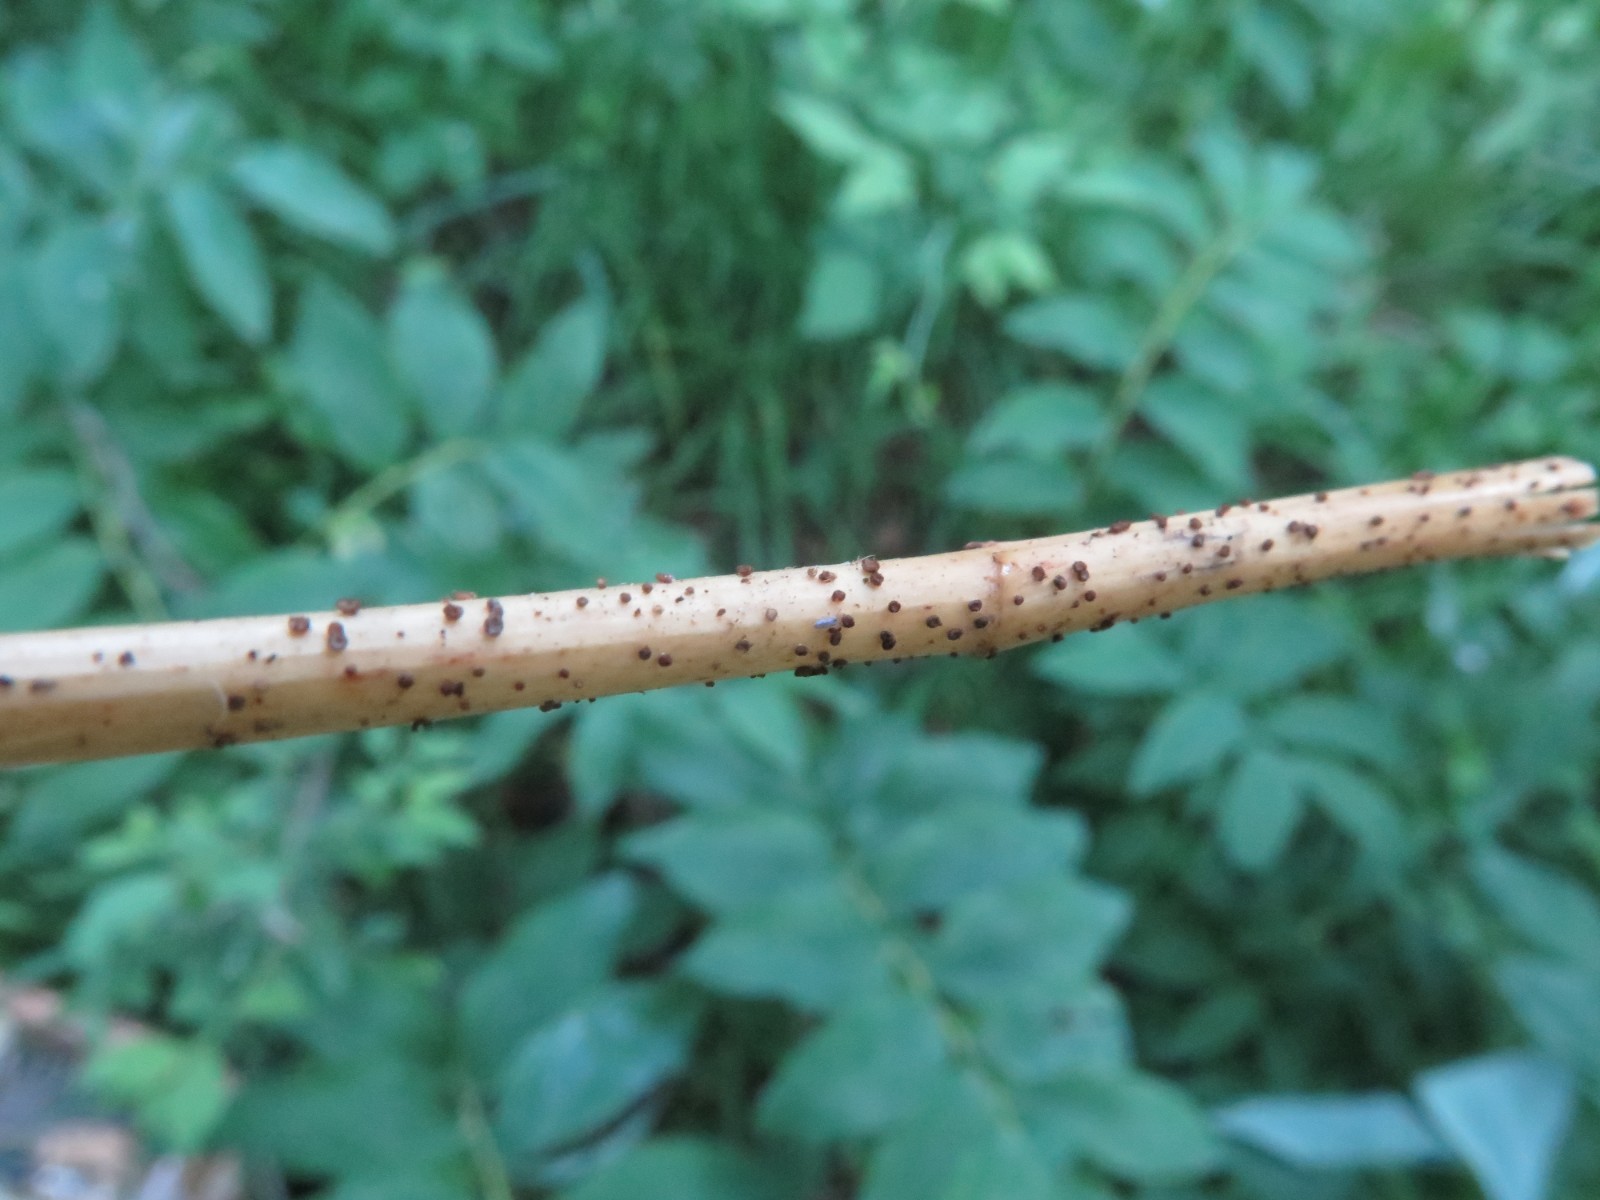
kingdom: Fungi
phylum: Ascomycota
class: Leotiomycetes
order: Helotiales
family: Solenopeziaceae
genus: Lasiobelonium
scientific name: Lasiobelonium nidulus
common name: rede-frynseskive
